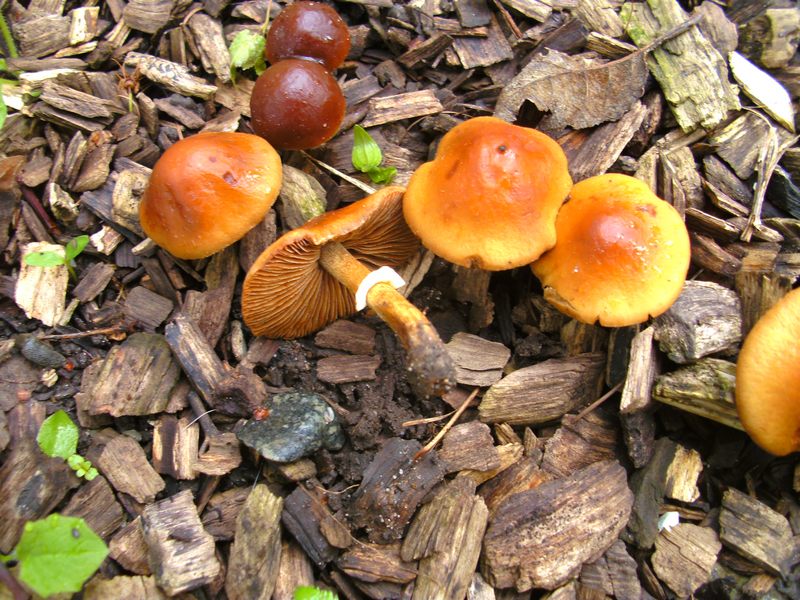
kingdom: Fungi
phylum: Basidiomycota
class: Agaricomycetes
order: Agaricales
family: Bolbitiaceae
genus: Conocybe
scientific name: Conocybe aporos
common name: tidlig dansehat
